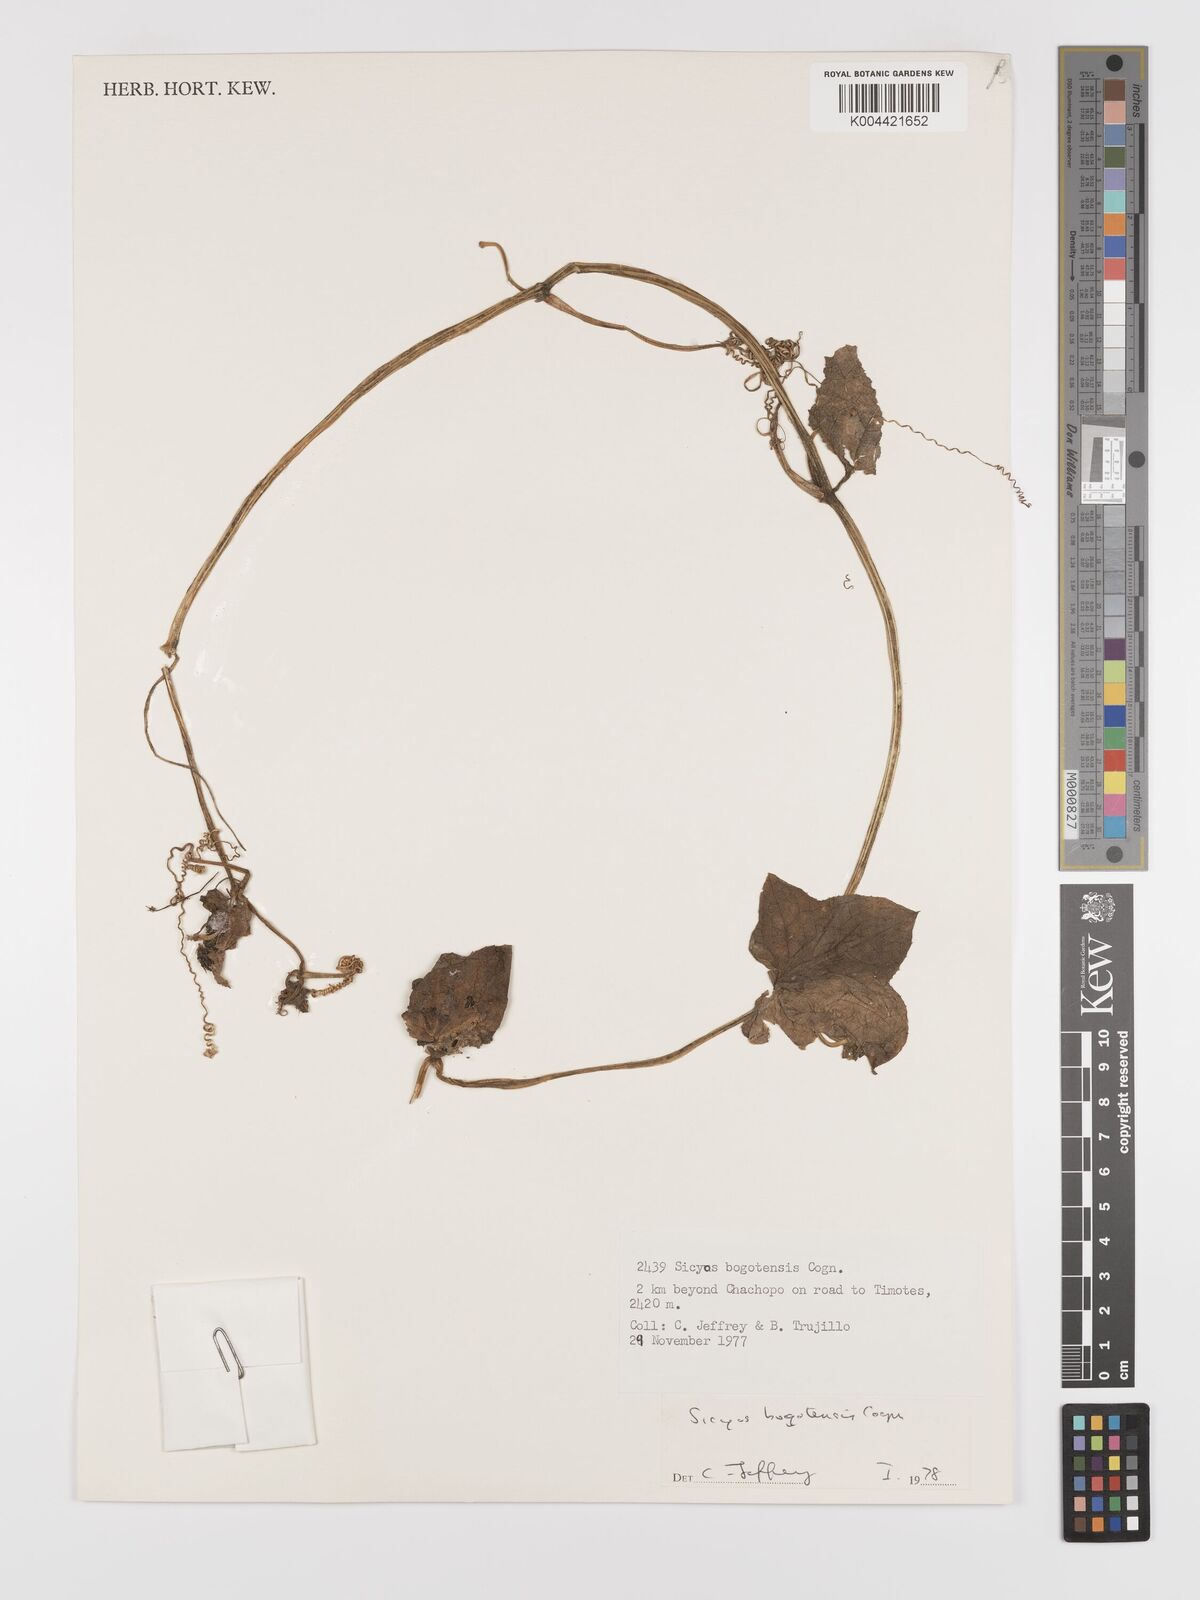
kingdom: Plantae
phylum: Tracheophyta
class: Magnoliopsida
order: Cucurbitales
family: Cucurbitaceae
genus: Sicyos
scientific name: Sicyos bogotensis
